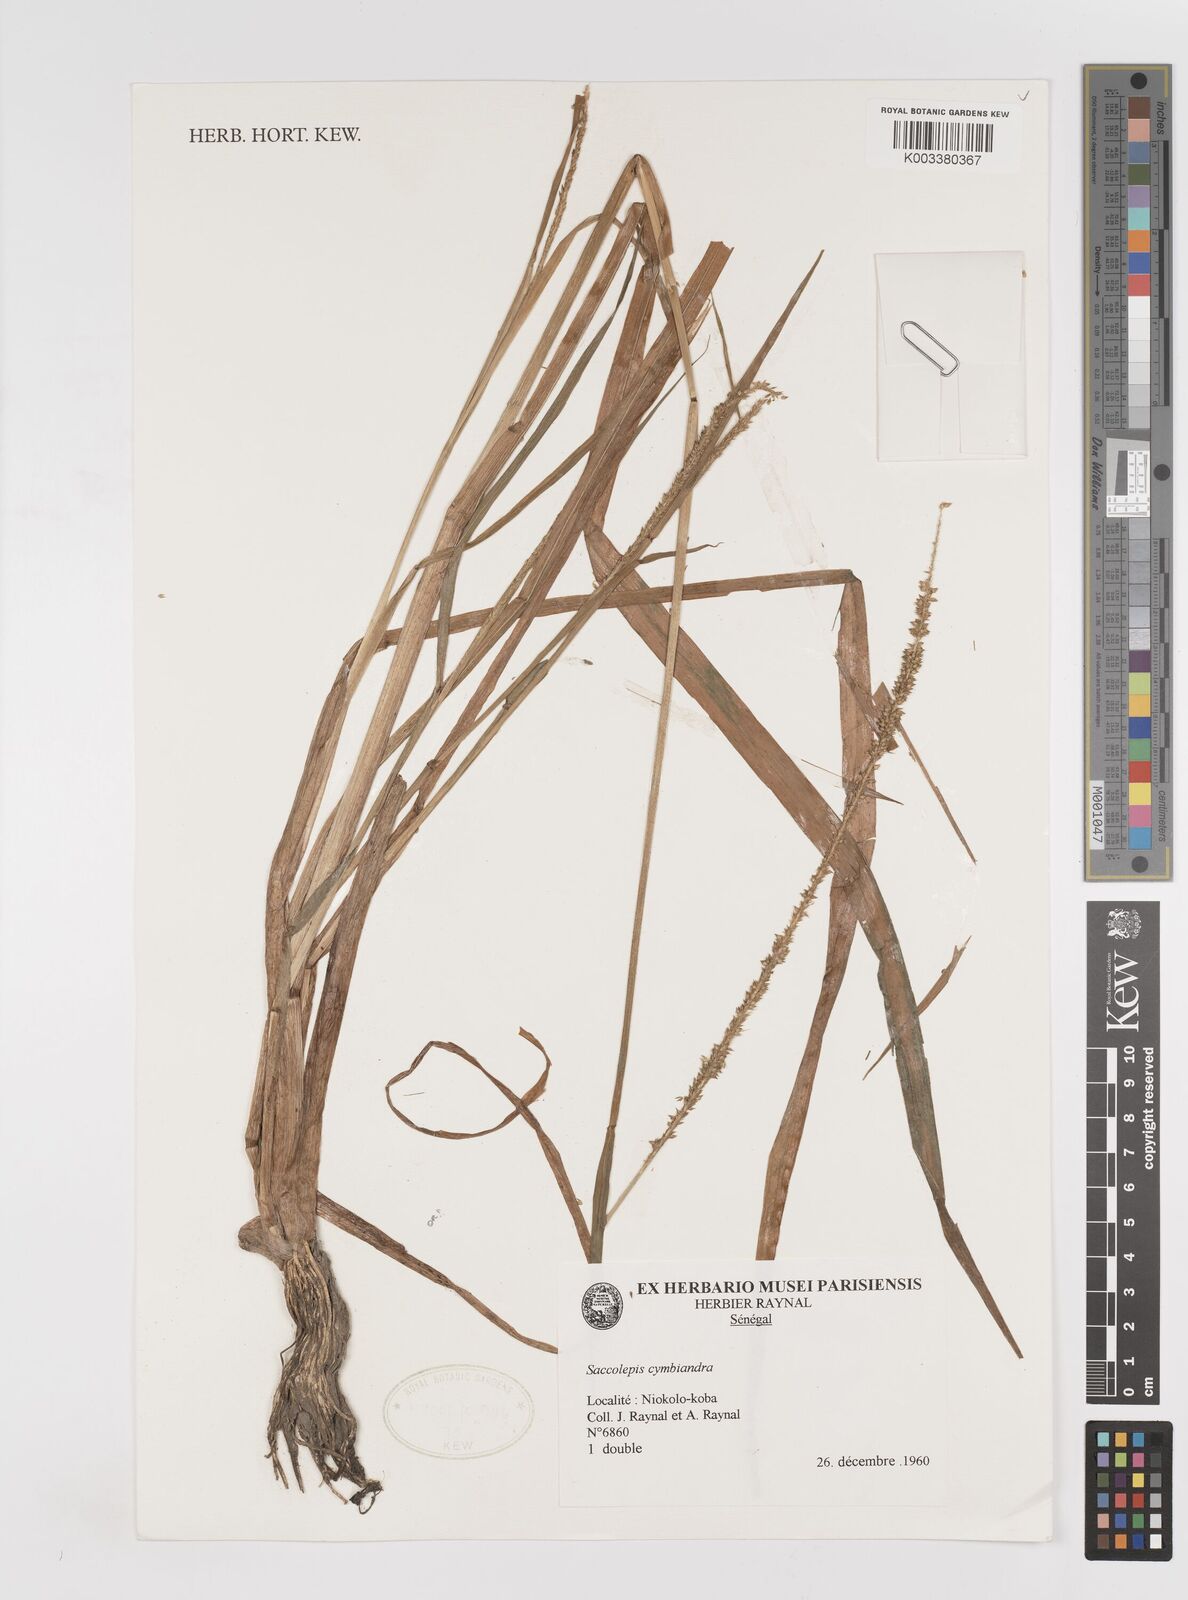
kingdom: Plantae
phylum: Tracheophyta
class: Liliopsida
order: Poales
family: Poaceae
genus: Sacciolepis
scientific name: Sacciolepis cymbiandra
